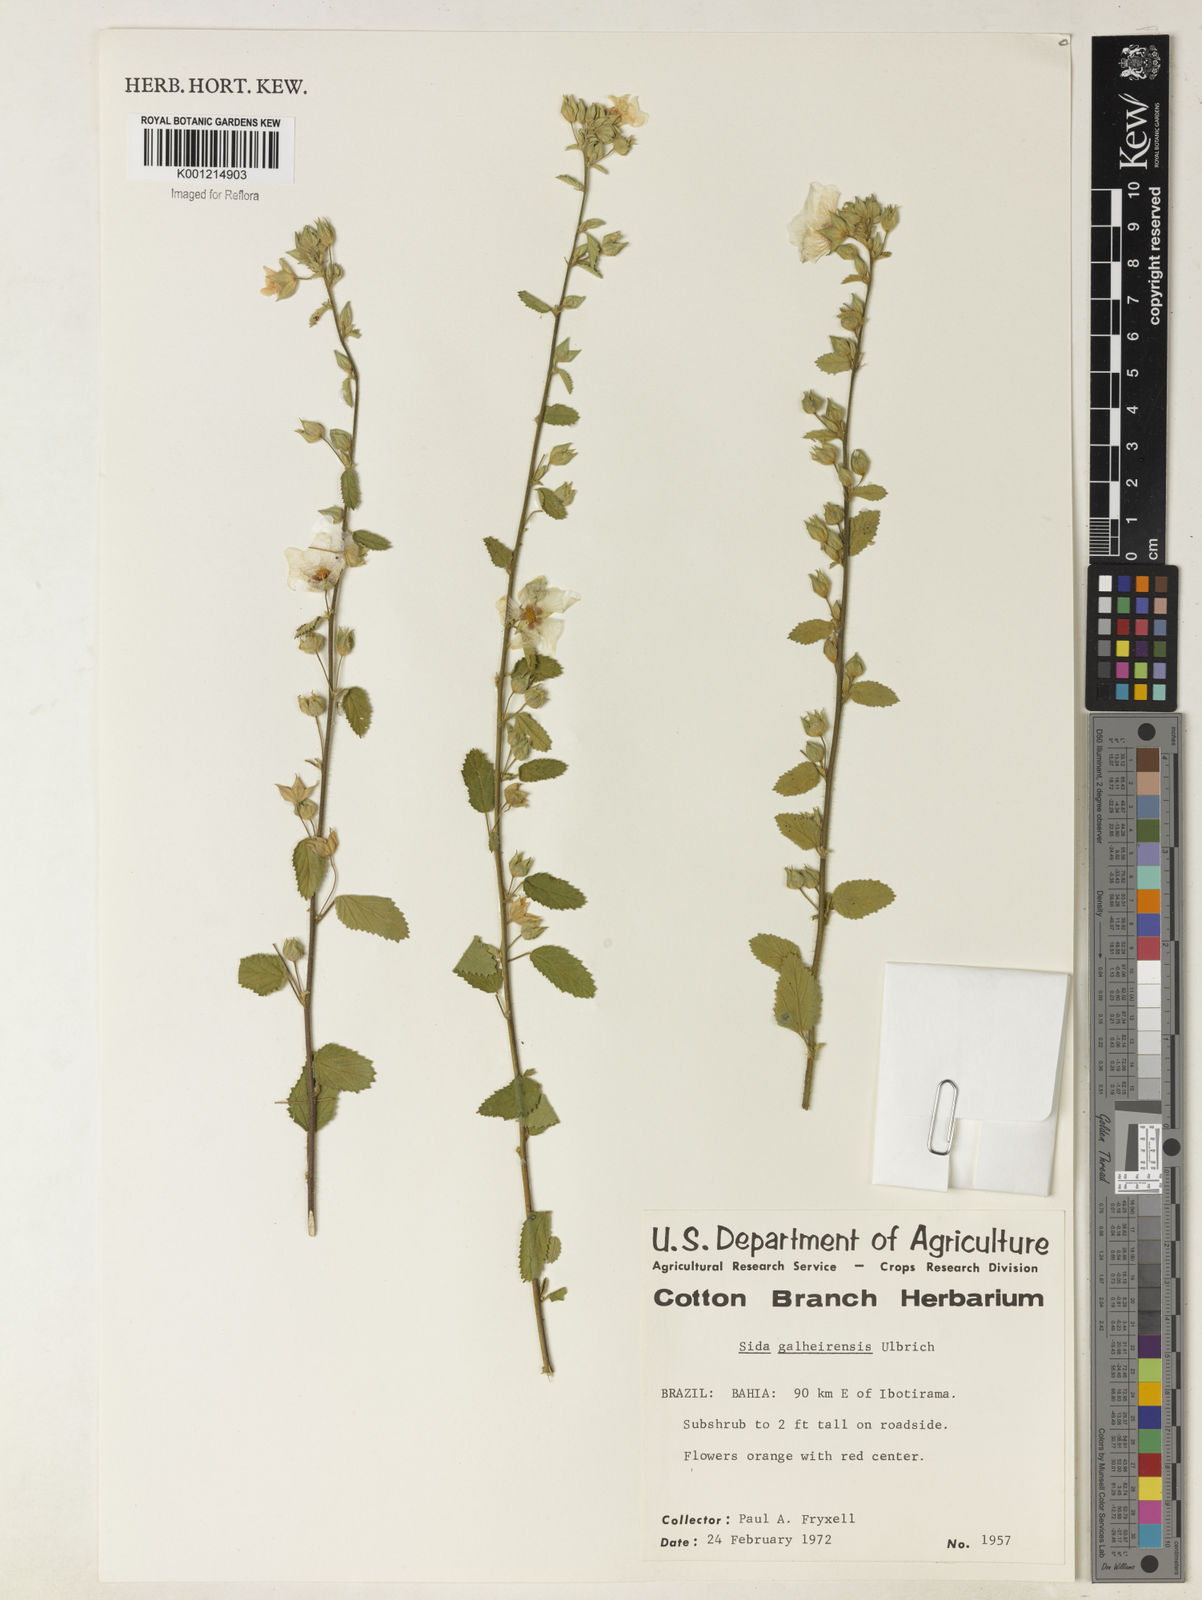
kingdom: Plantae
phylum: Tracheophyta
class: Magnoliopsida
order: Malvales
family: Malvaceae
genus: Sida
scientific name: Sida galheirensis
